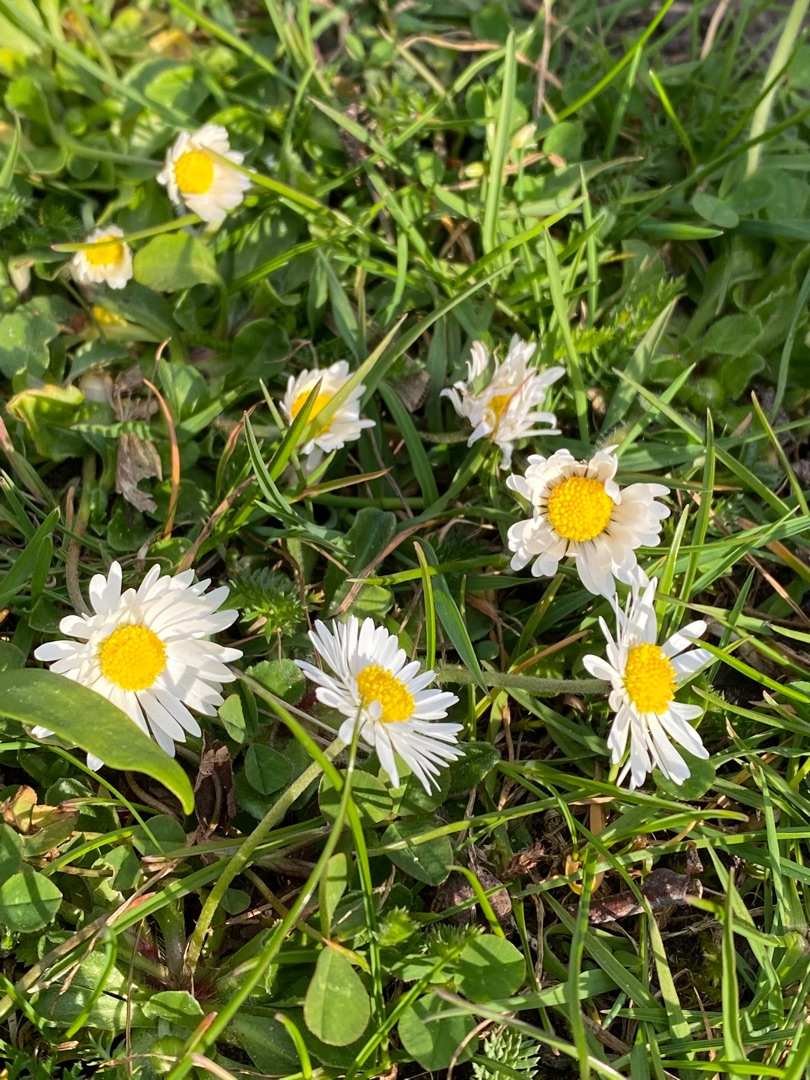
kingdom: Plantae
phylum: Tracheophyta
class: Magnoliopsida
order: Asterales
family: Asteraceae
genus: Bellis
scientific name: Bellis perennis
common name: Tusindfryd
